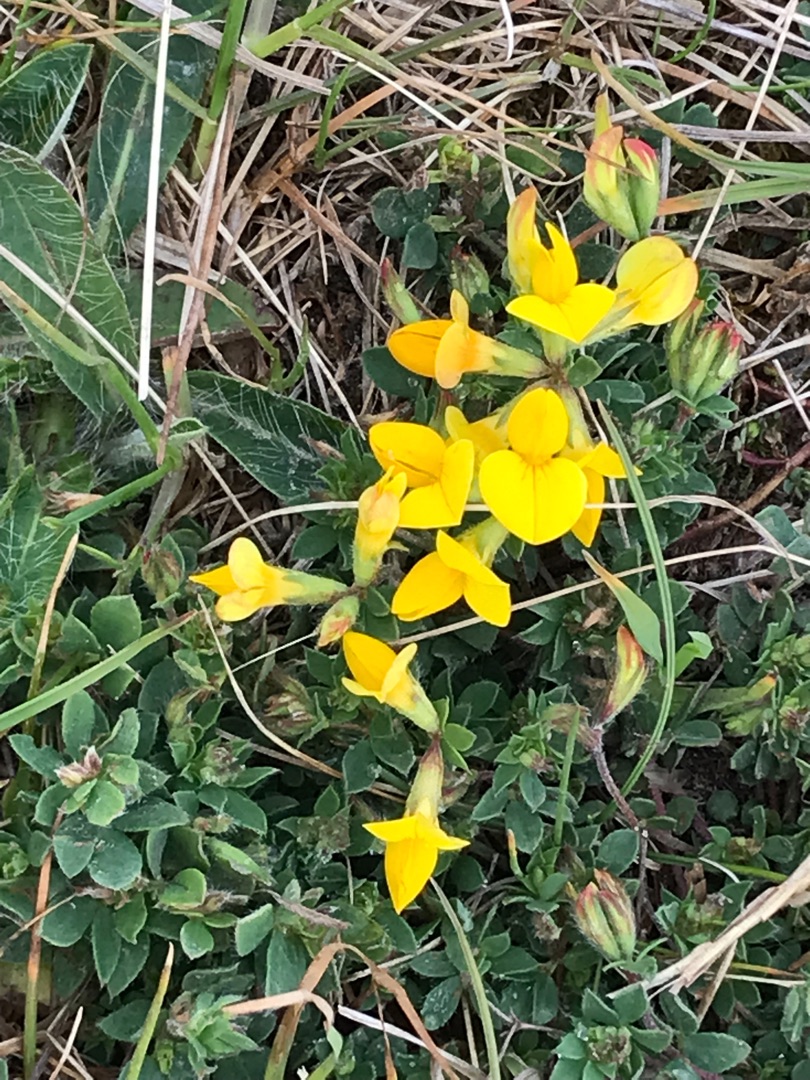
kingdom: Plantae
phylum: Tracheophyta
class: Magnoliopsida
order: Fabales
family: Fabaceae
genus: Lotus
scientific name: Lotus corniculatus
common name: Almindelig kællingetand
